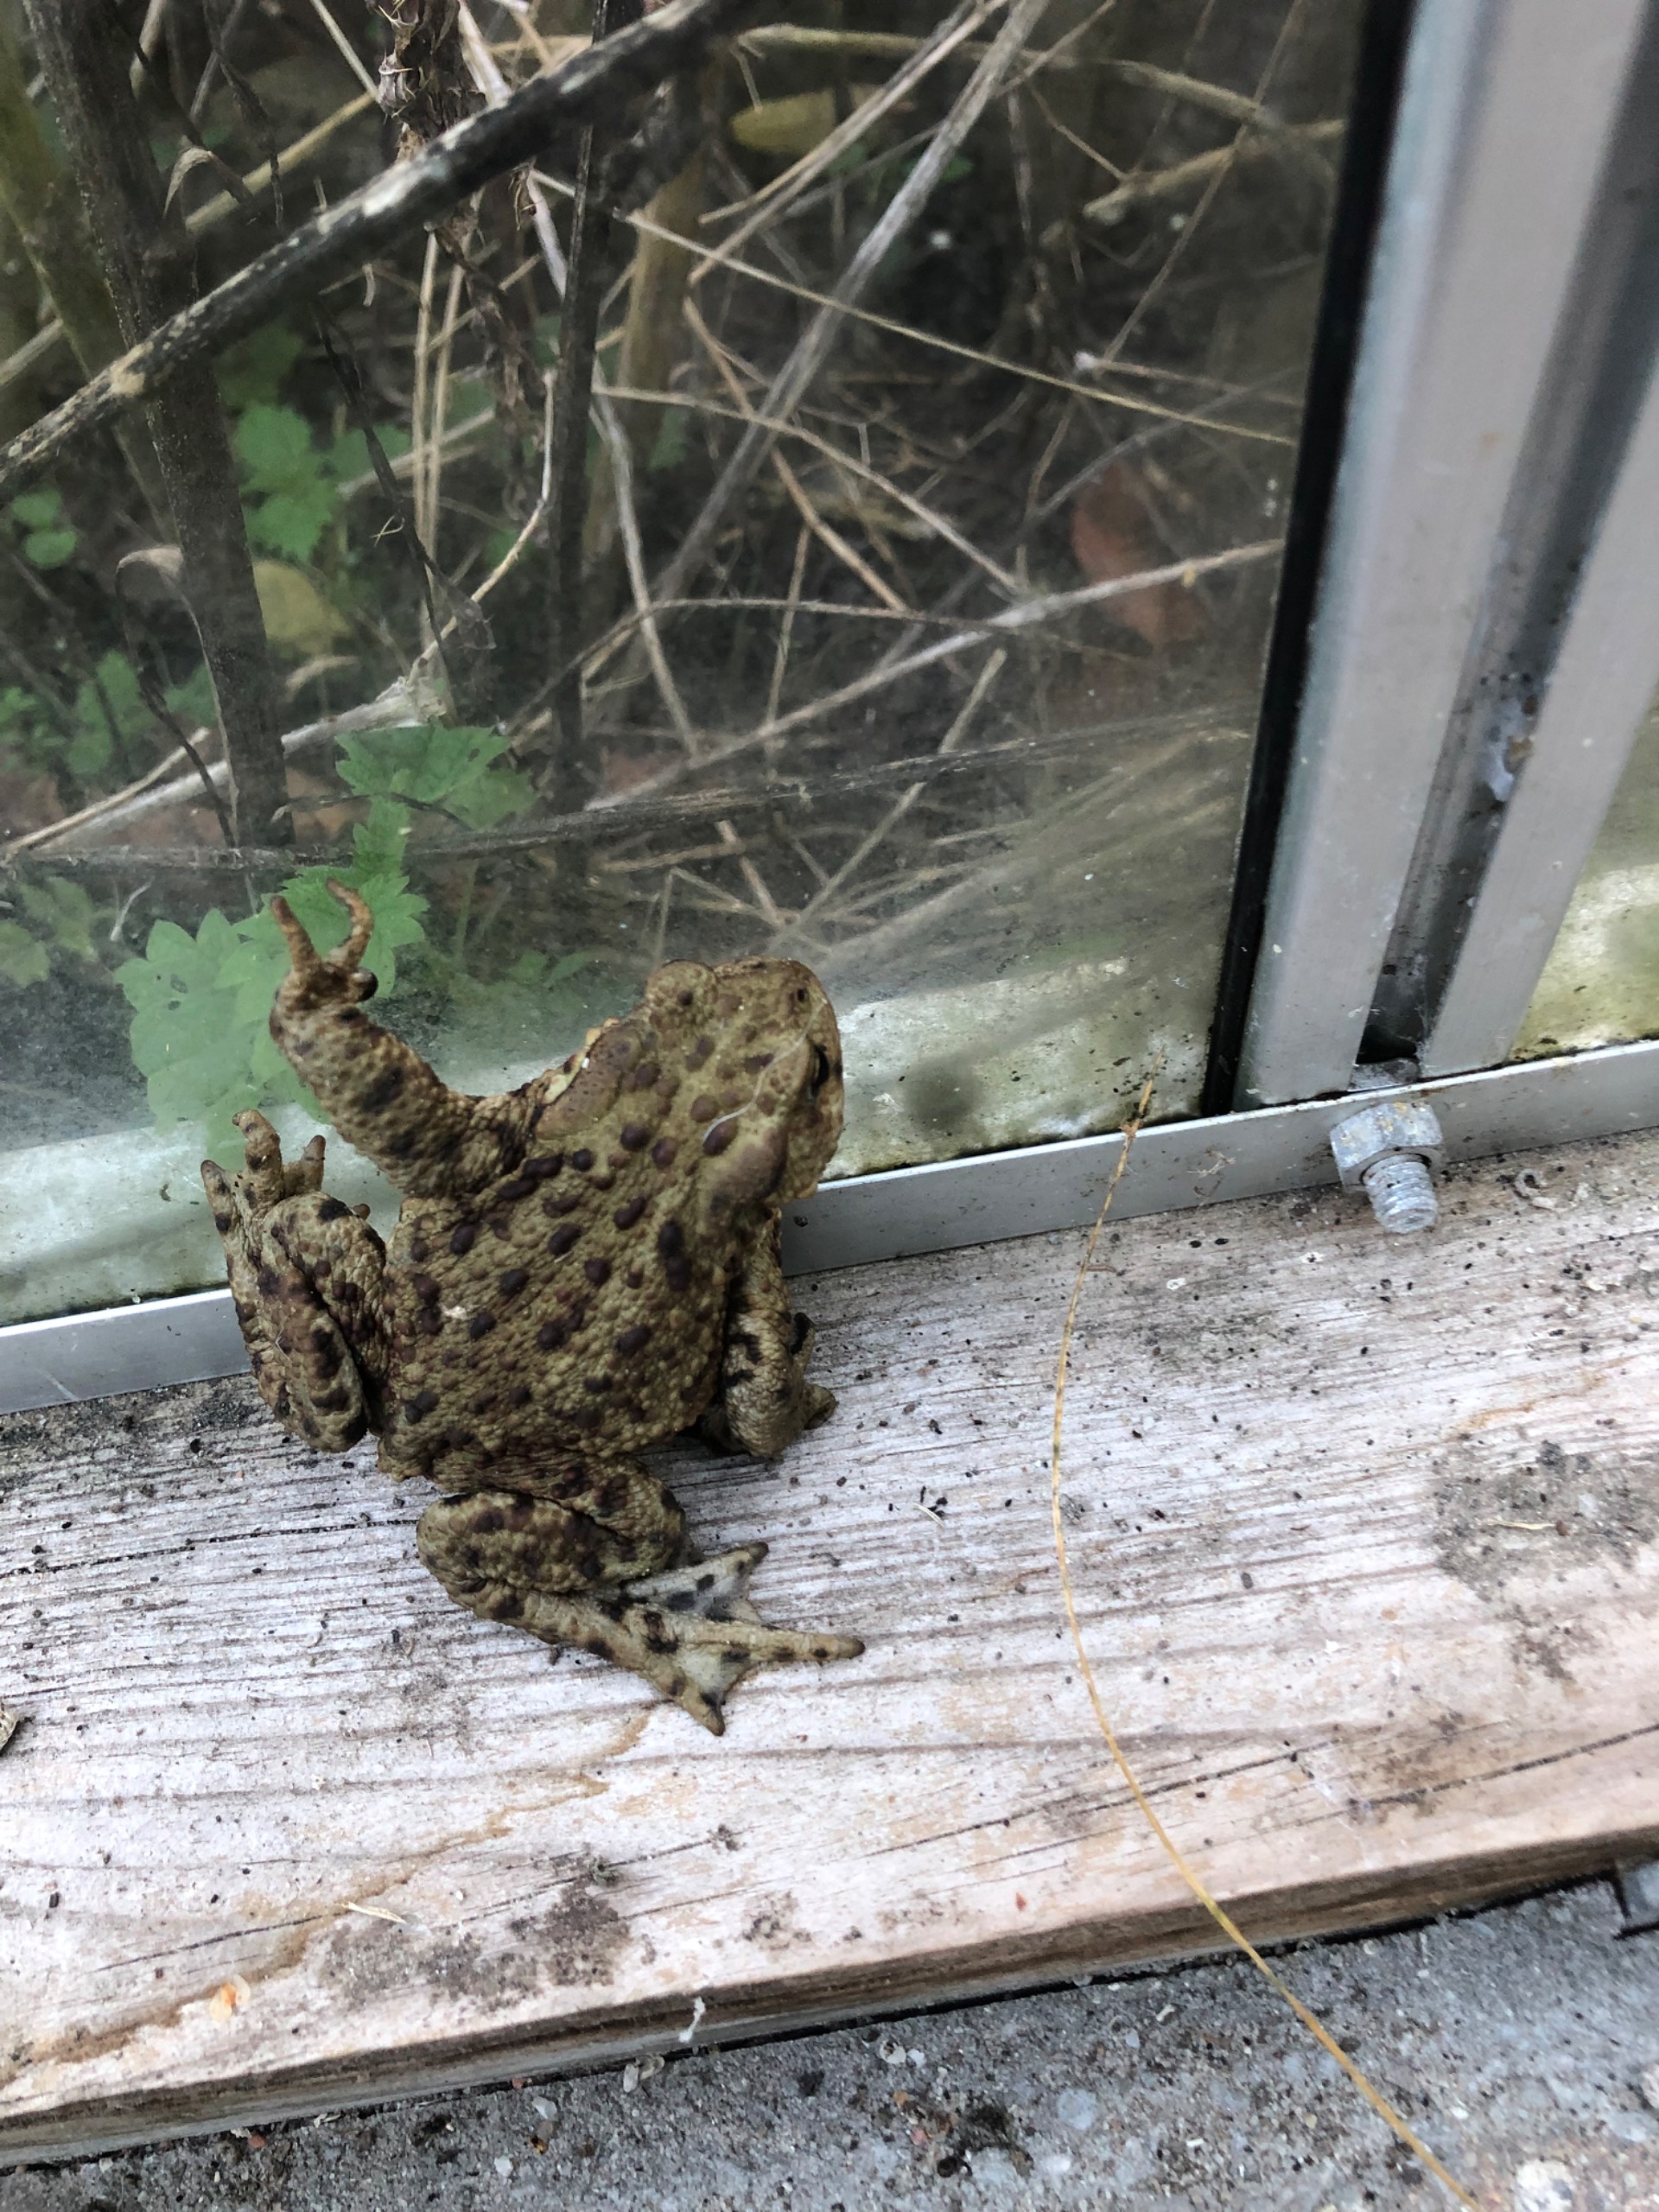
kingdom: Animalia
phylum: Chordata
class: Amphibia
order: Anura
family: Bufonidae
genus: Bufo
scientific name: Bufo bufo
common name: Skrubtudse
